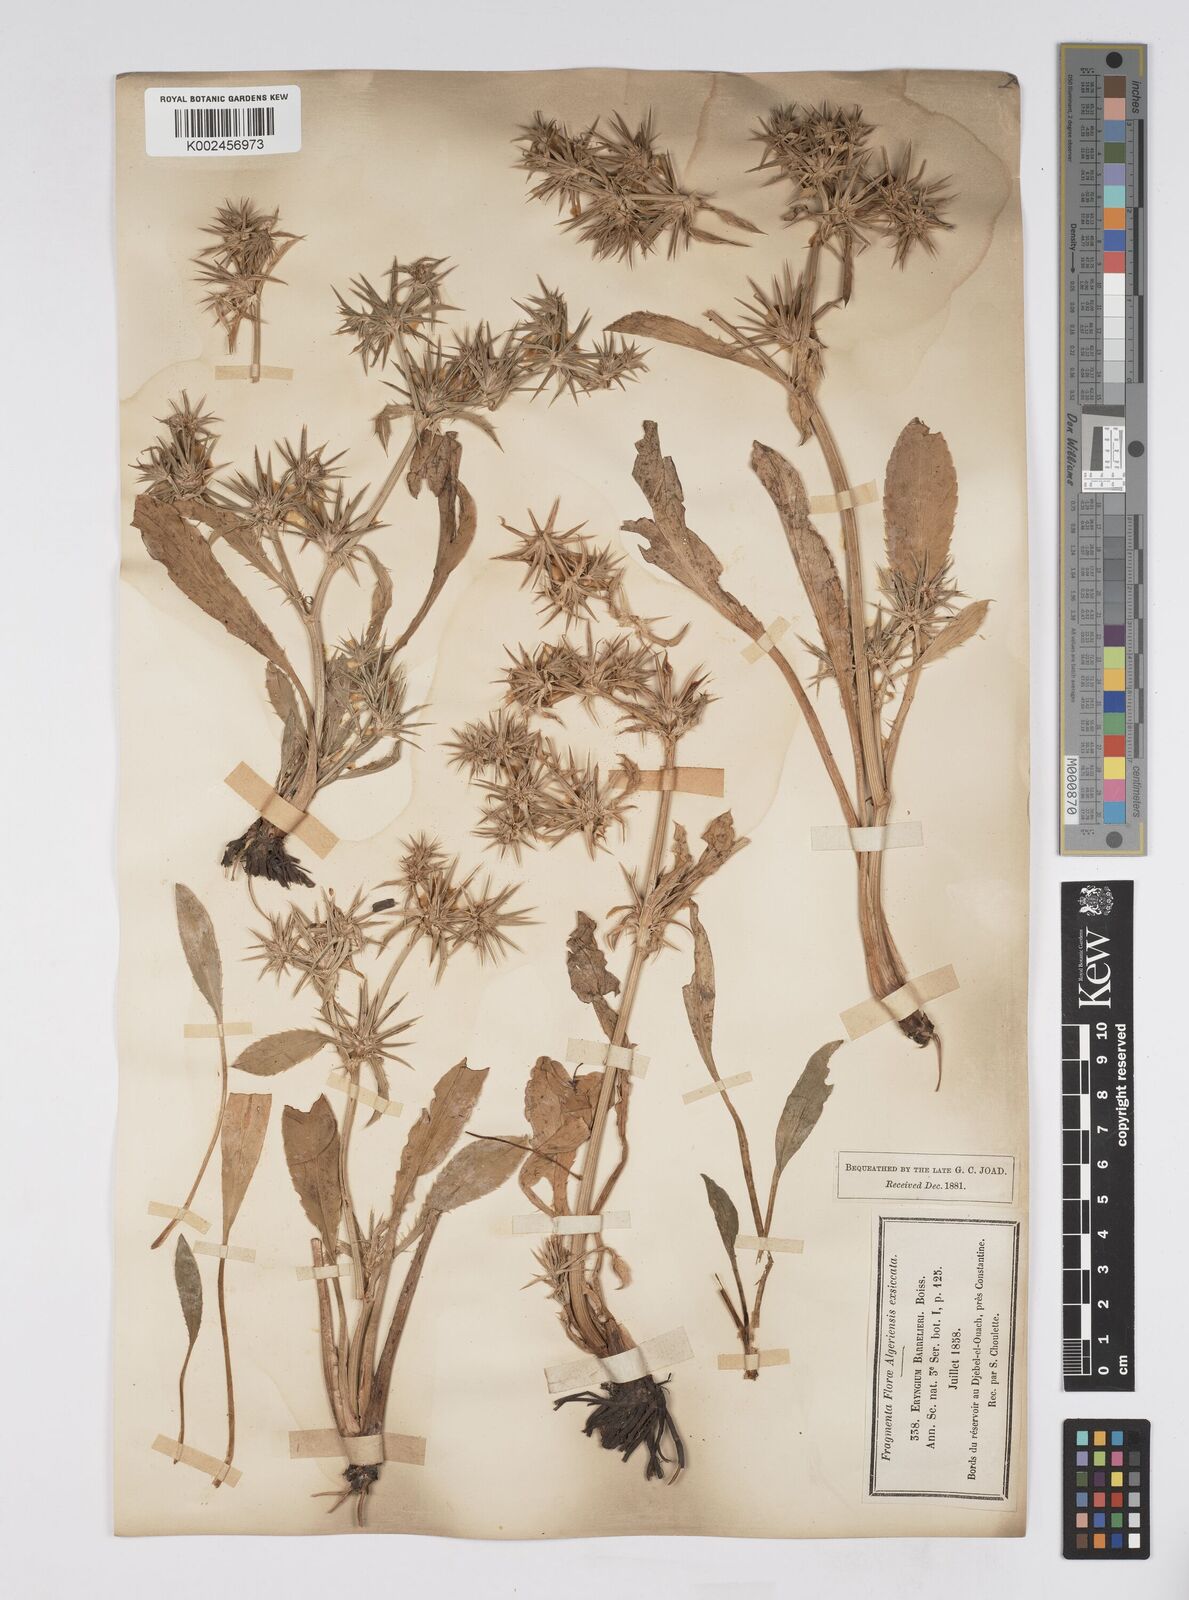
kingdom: Plantae
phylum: Tracheophyta
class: Magnoliopsida
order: Apiales
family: Apiaceae
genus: Eryngium
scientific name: Eryngium pusillum
